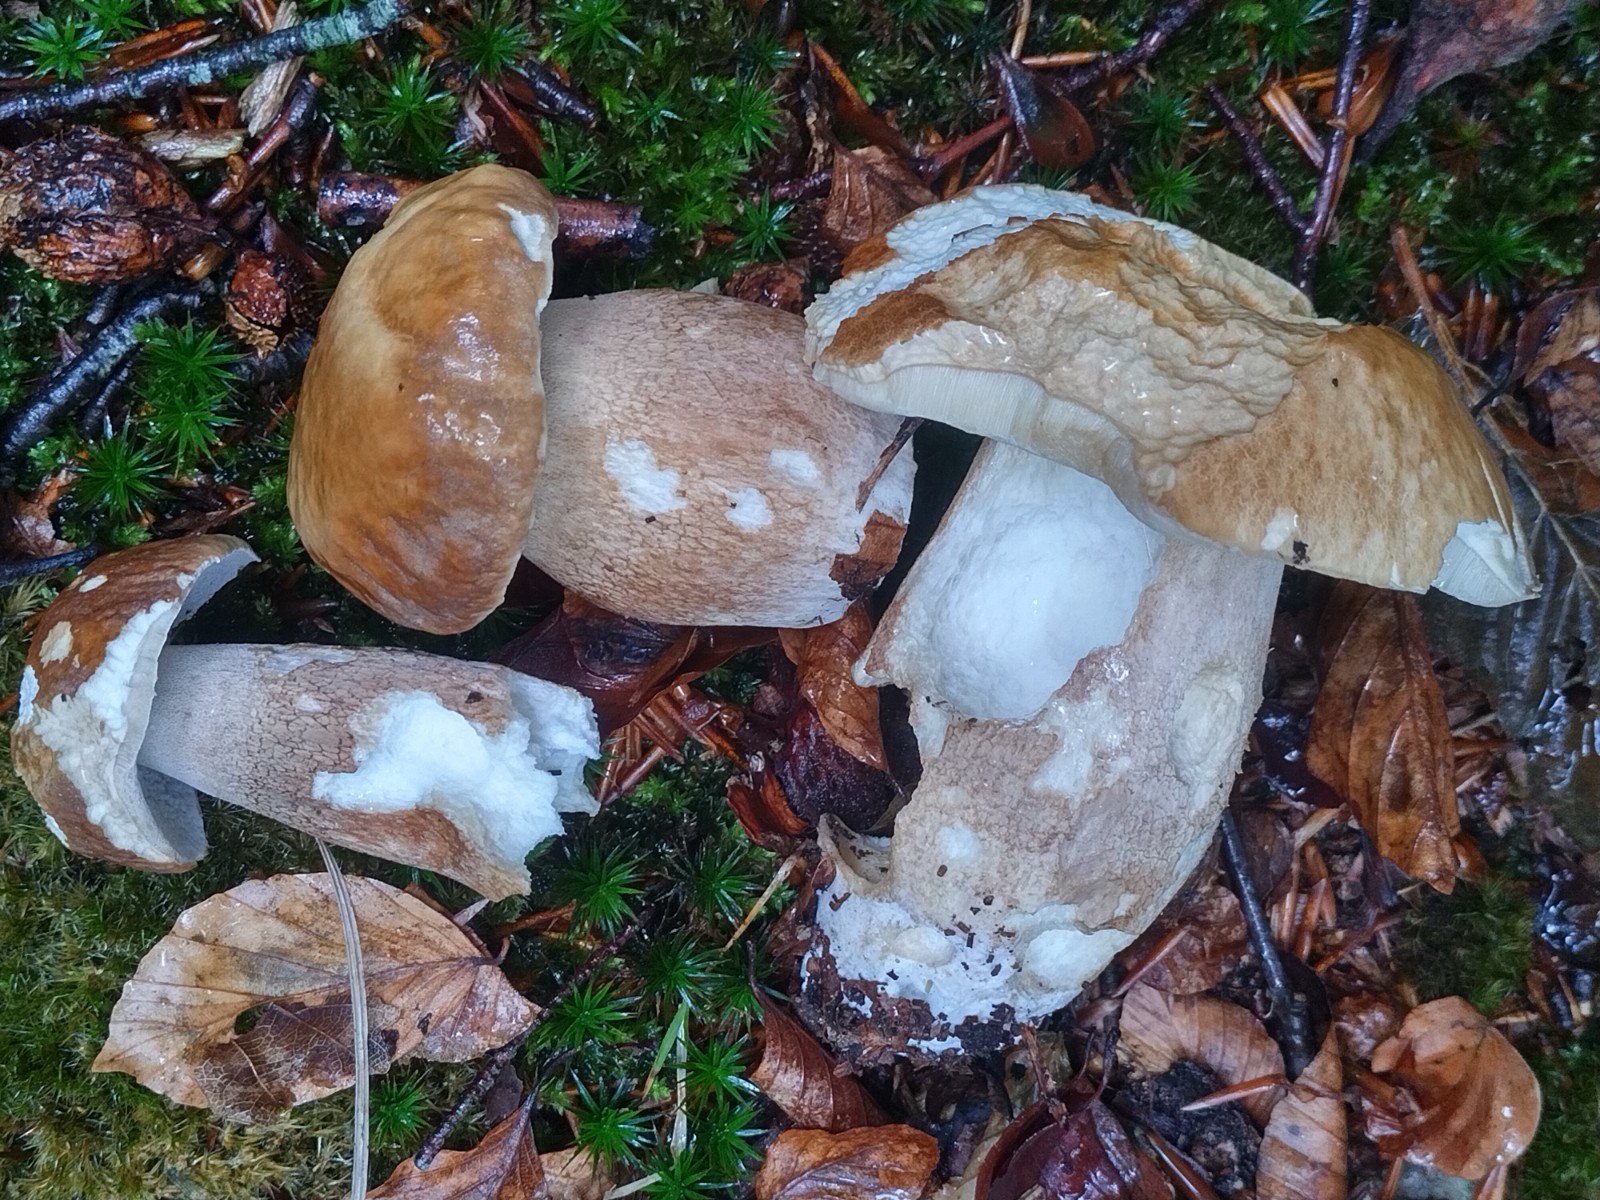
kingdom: Fungi
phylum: Basidiomycota
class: Agaricomycetes
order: Boletales
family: Boletaceae
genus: Boletus
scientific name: Boletus edulis
